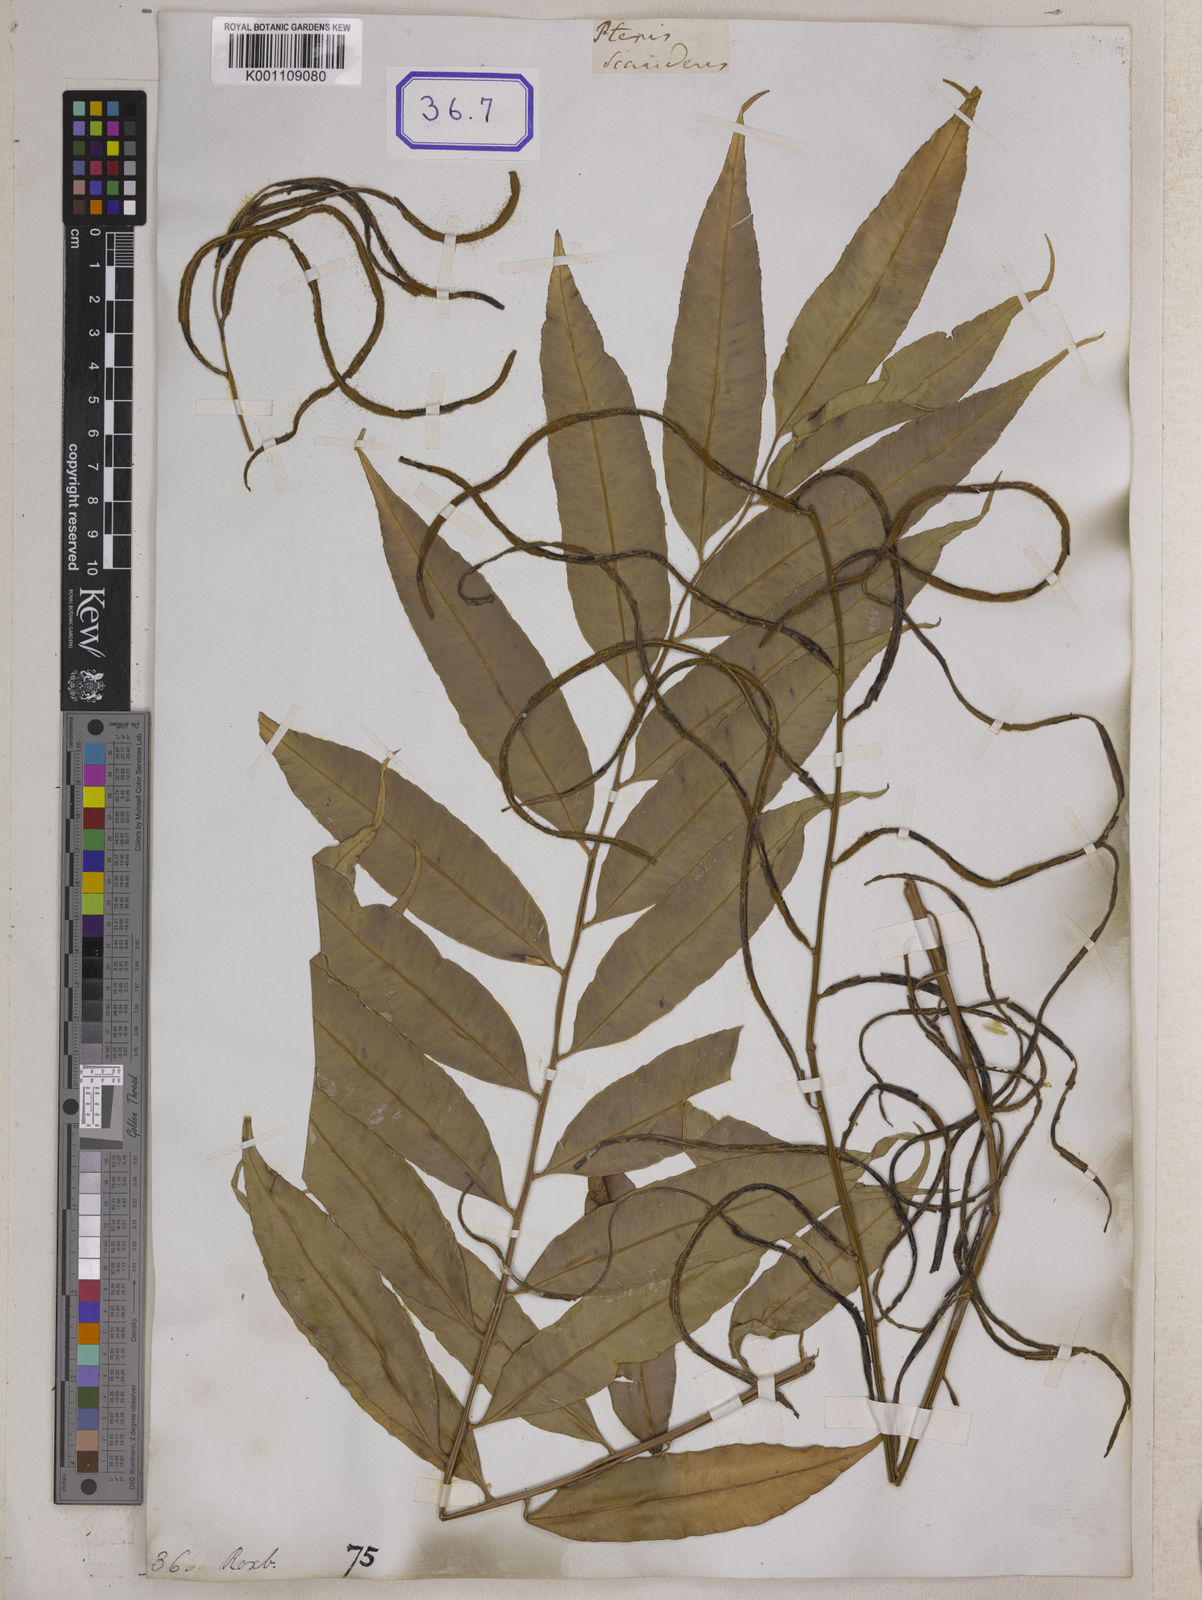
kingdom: Plantae
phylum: Tracheophyta
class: Polypodiopsida
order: Polypodiales
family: Blechnaceae
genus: Stenochlaena
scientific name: Stenochlaena palustris
